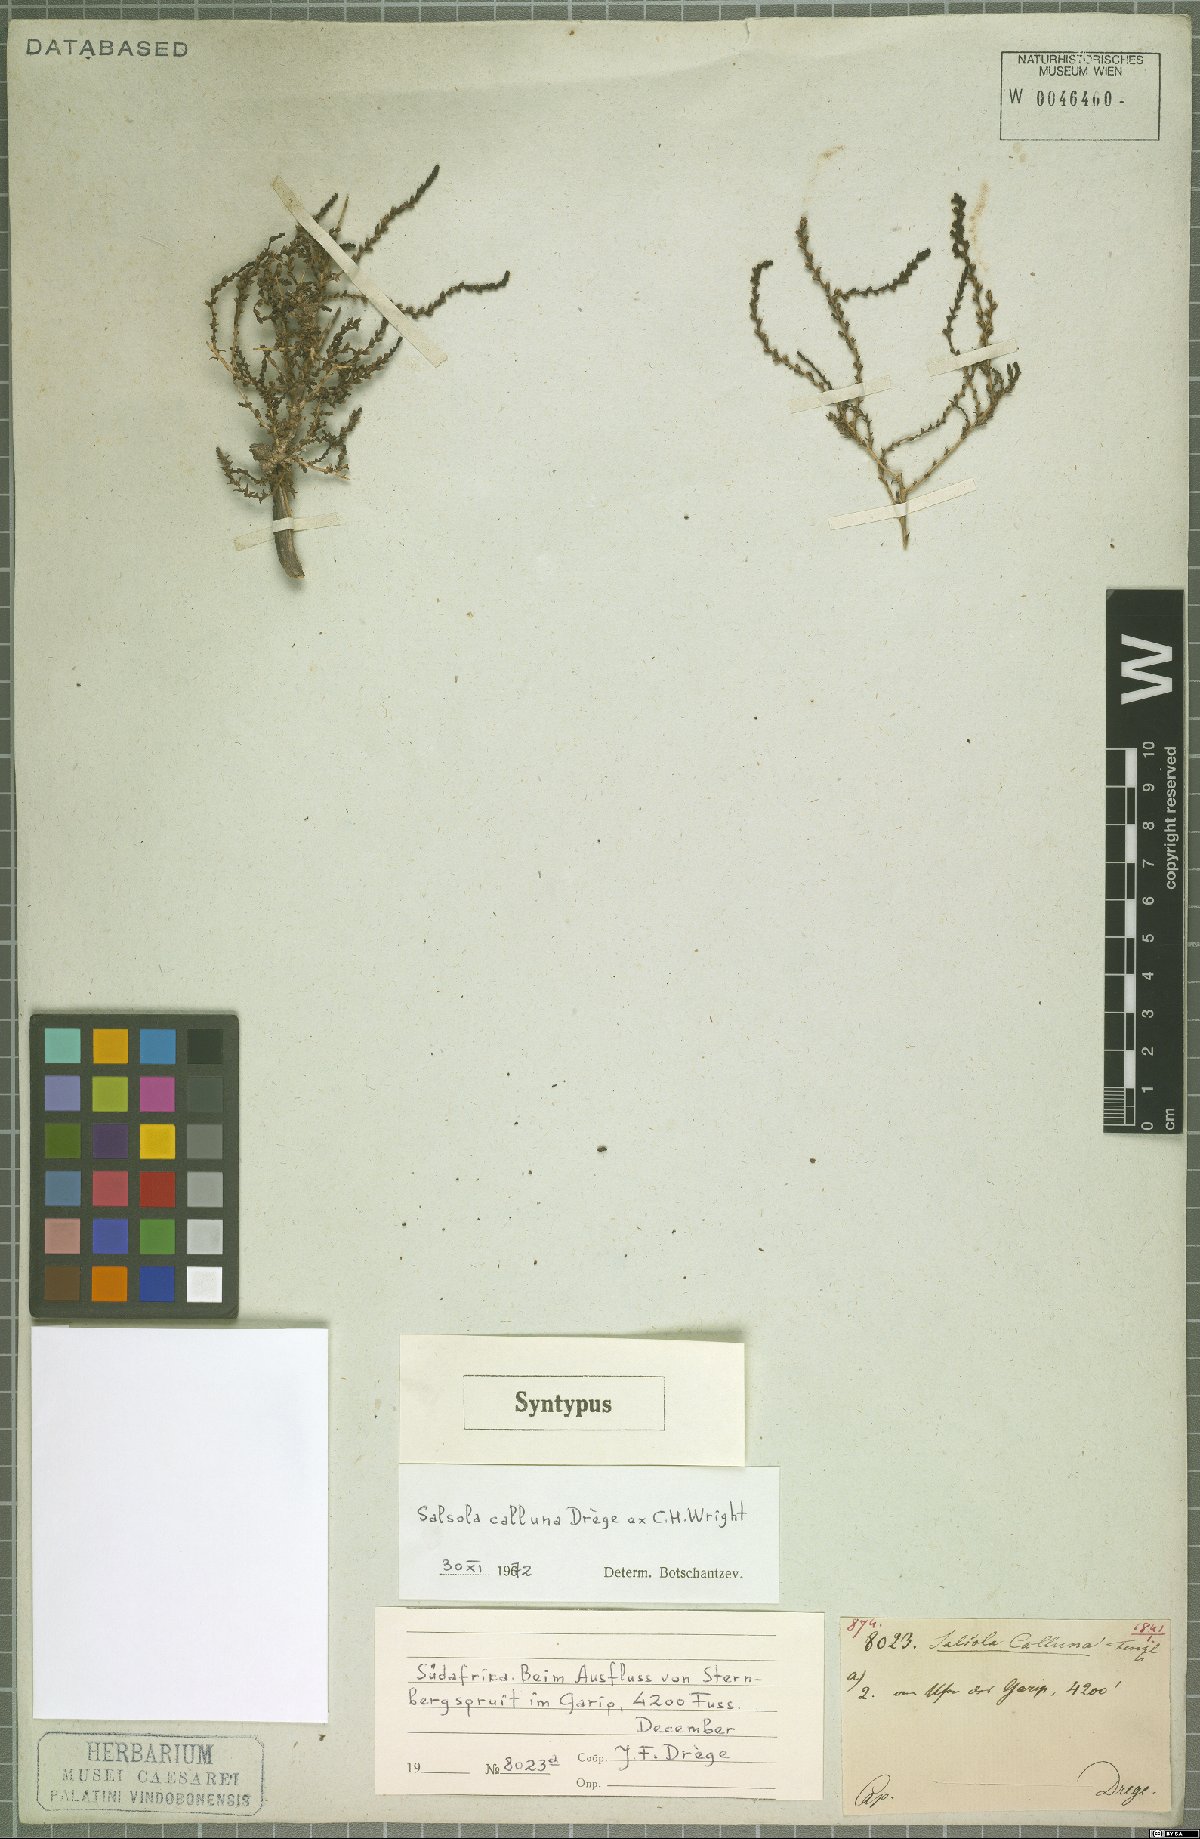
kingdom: Plantae
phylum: Tracheophyta
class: Magnoliopsida
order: Caryophyllales
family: Amaranthaceae
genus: Caroxylon
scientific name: Caroxylon calluna
